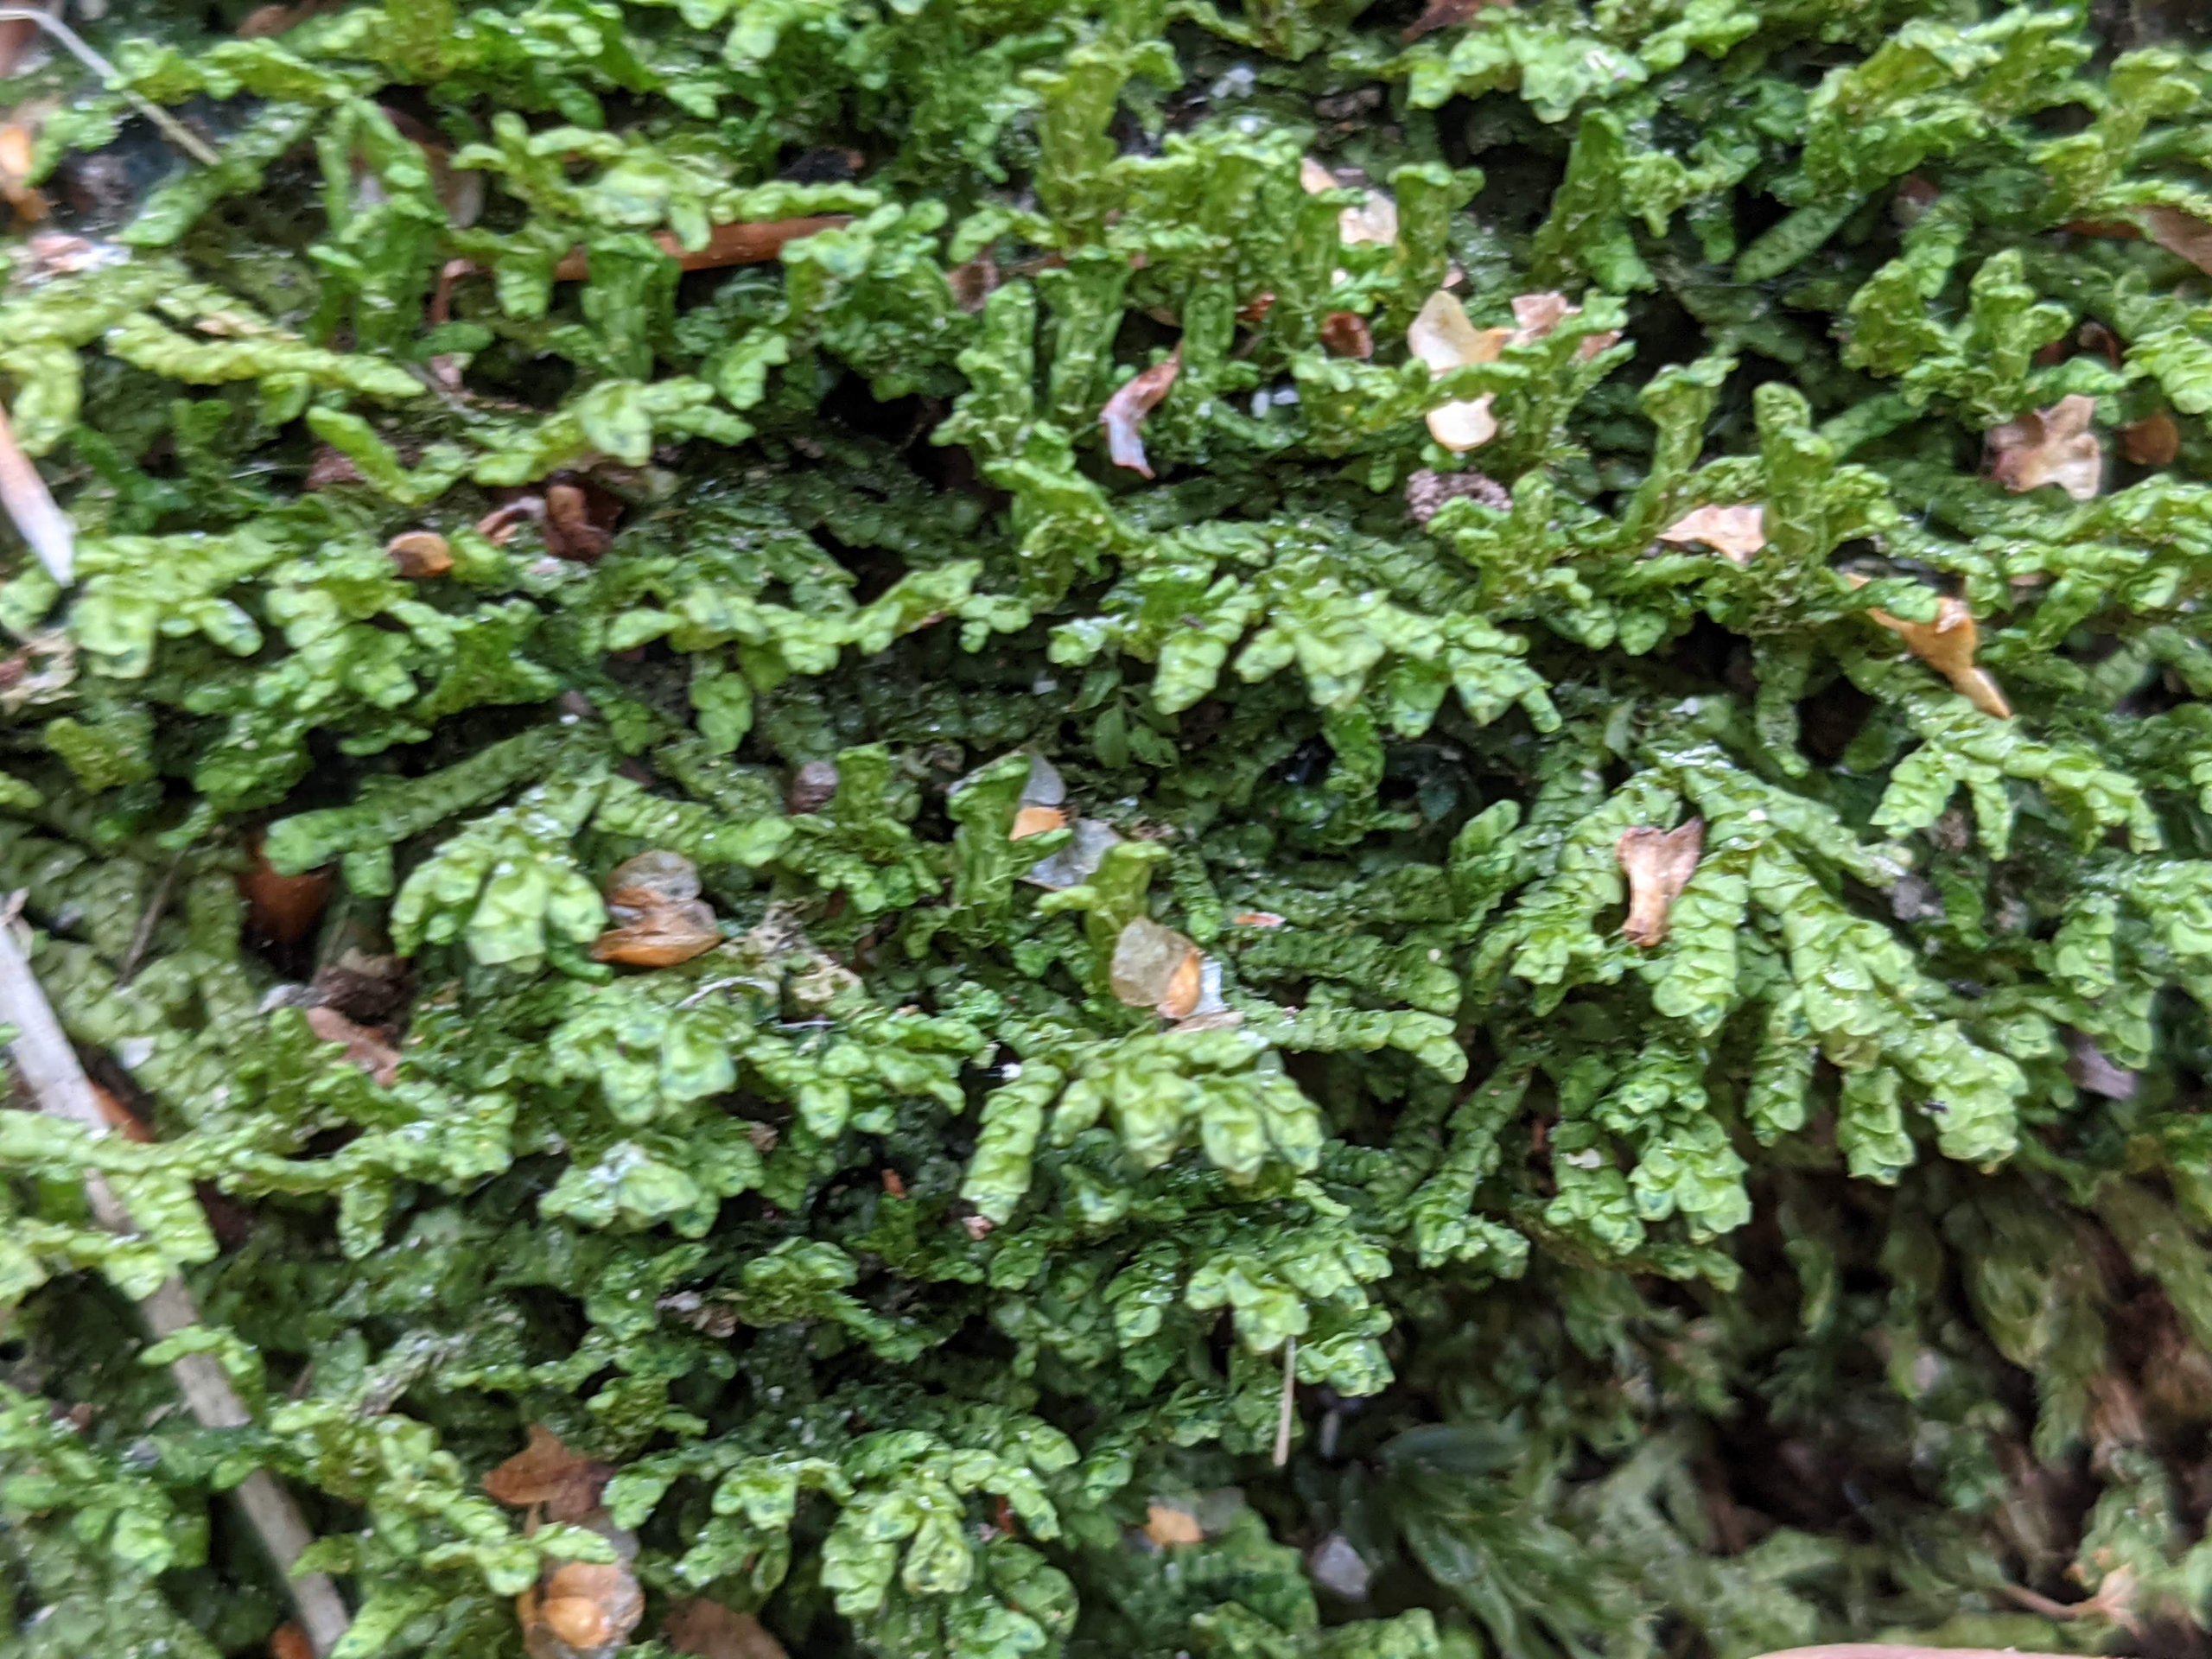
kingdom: Plantae
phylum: Marchantiophyta
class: Jungermanniopsida
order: Porellales
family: Porellaceae
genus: Porella
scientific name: Porella platyphylla
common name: Almindelig skælryg
